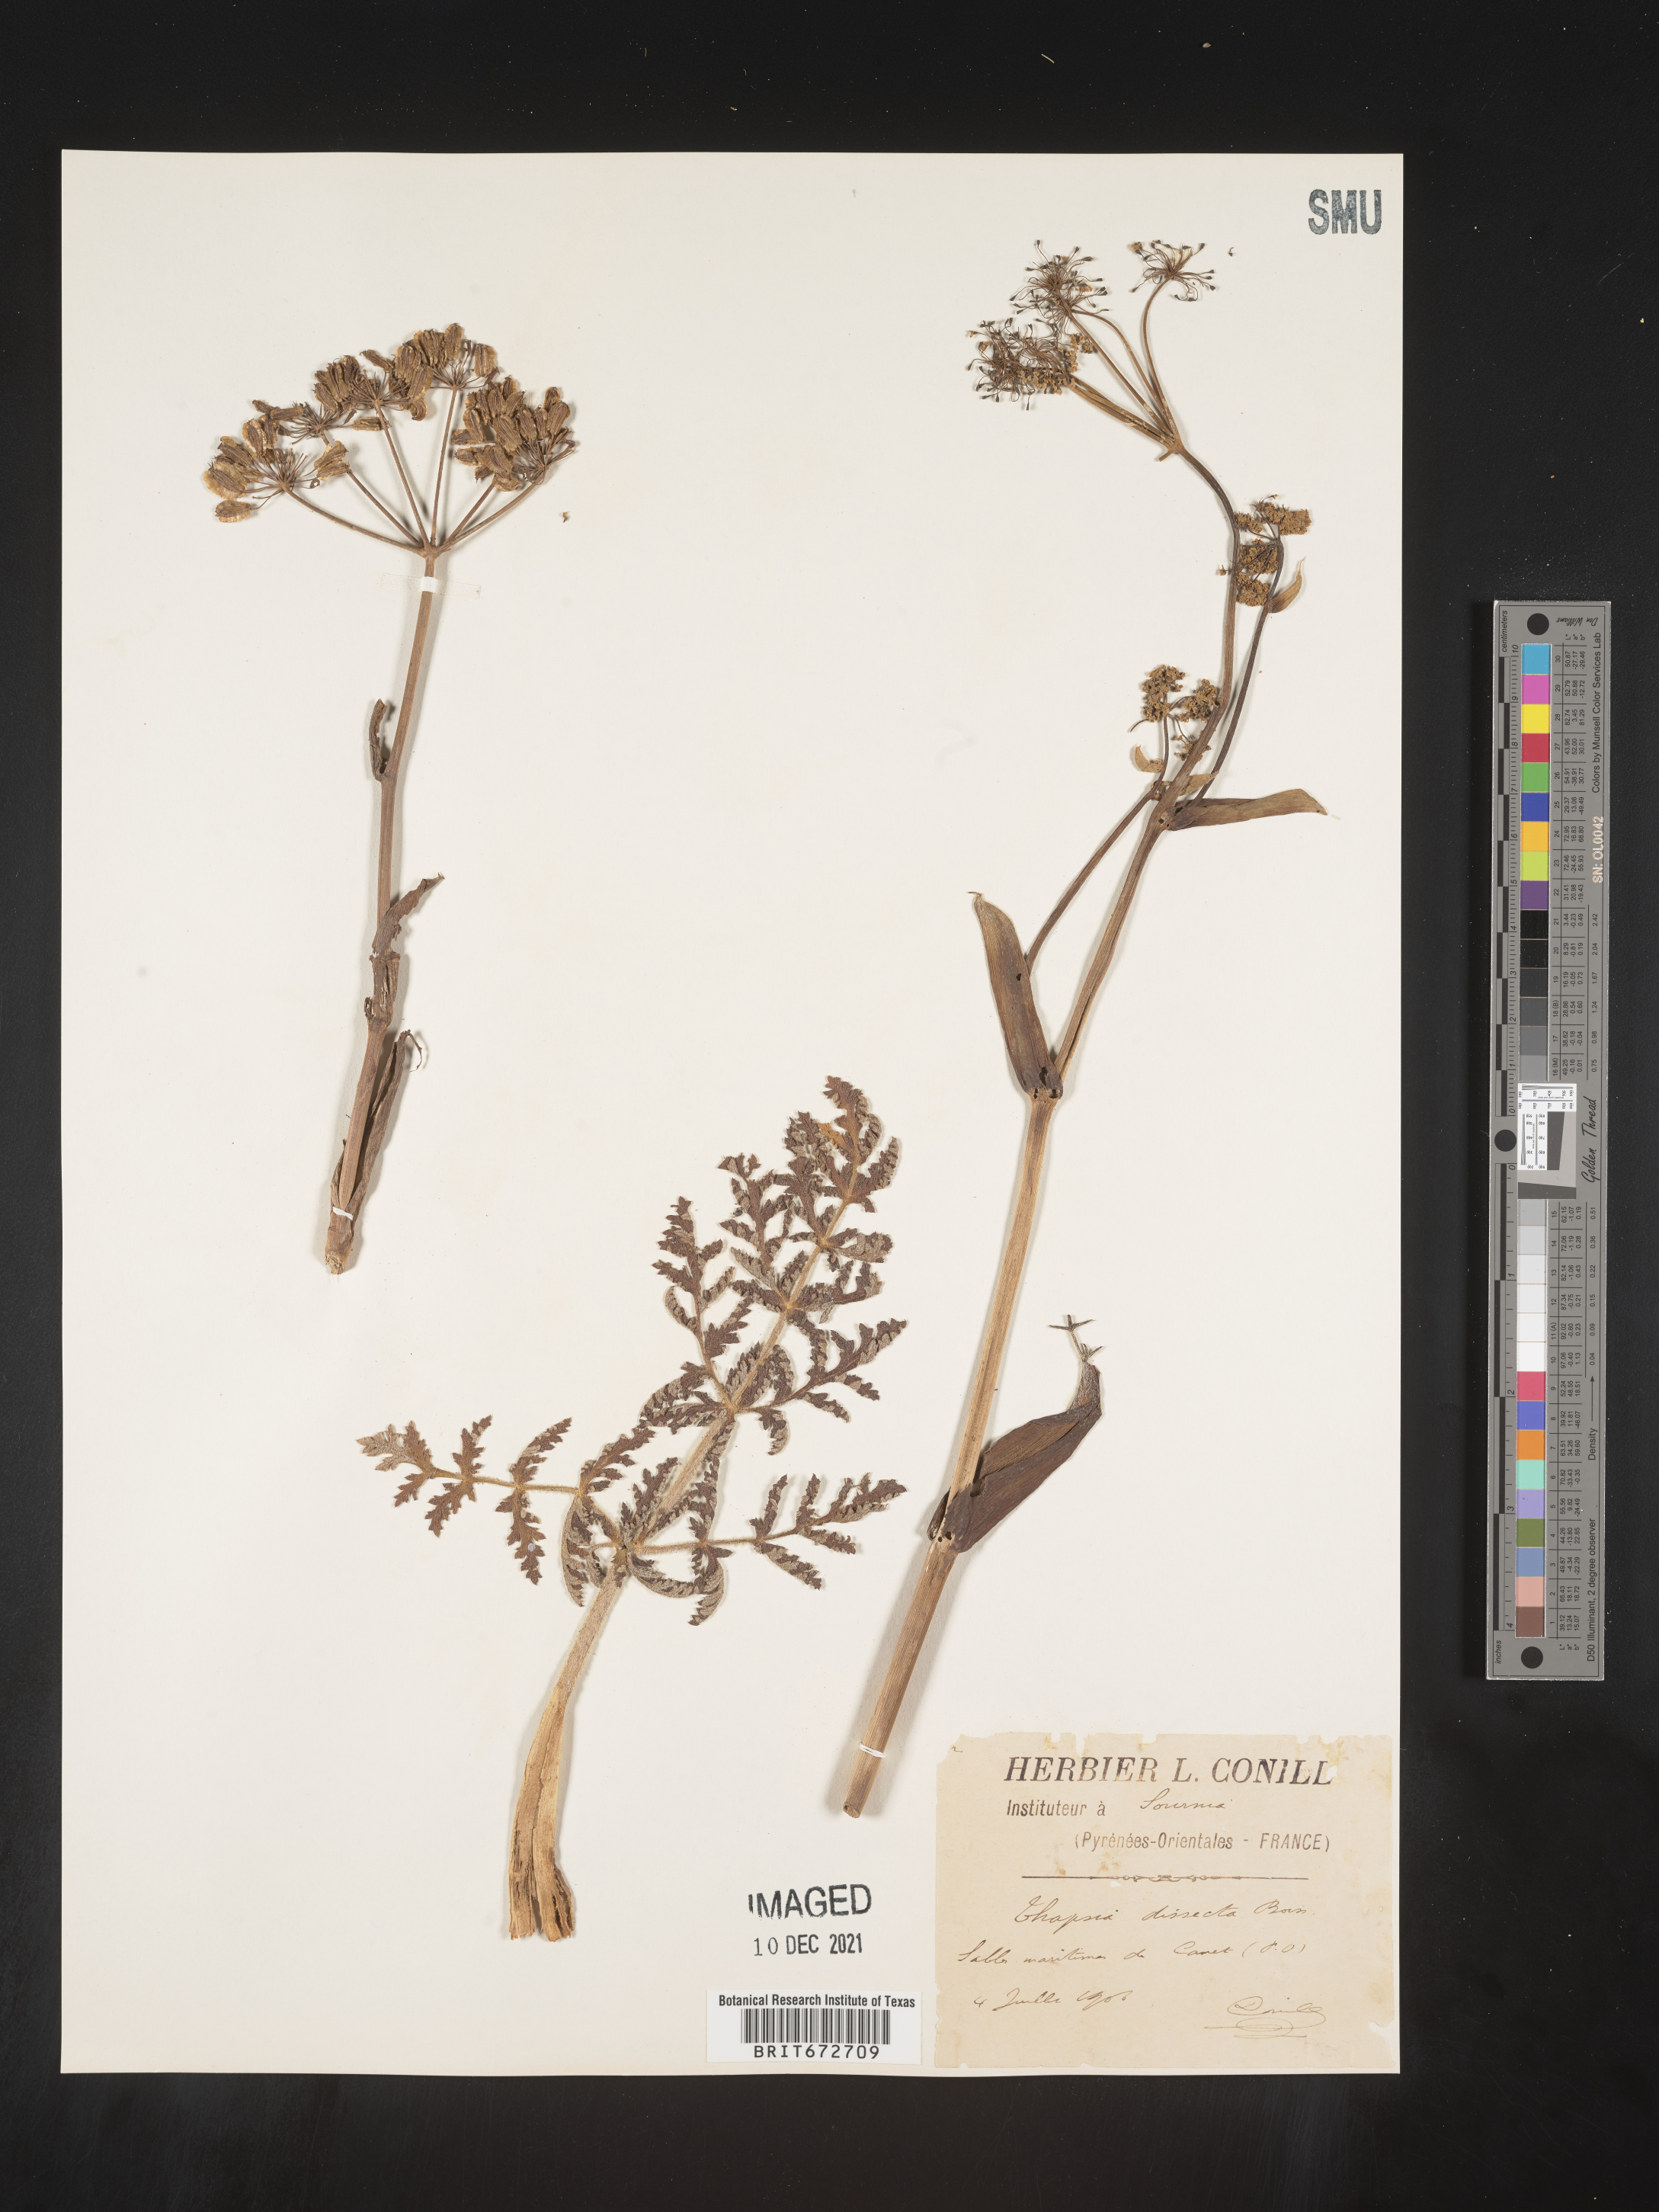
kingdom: Plantae
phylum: Tracheophyta
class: Magnoliopsida
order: Apiales
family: Apiaceae
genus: Thapsia
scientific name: Thapsia
